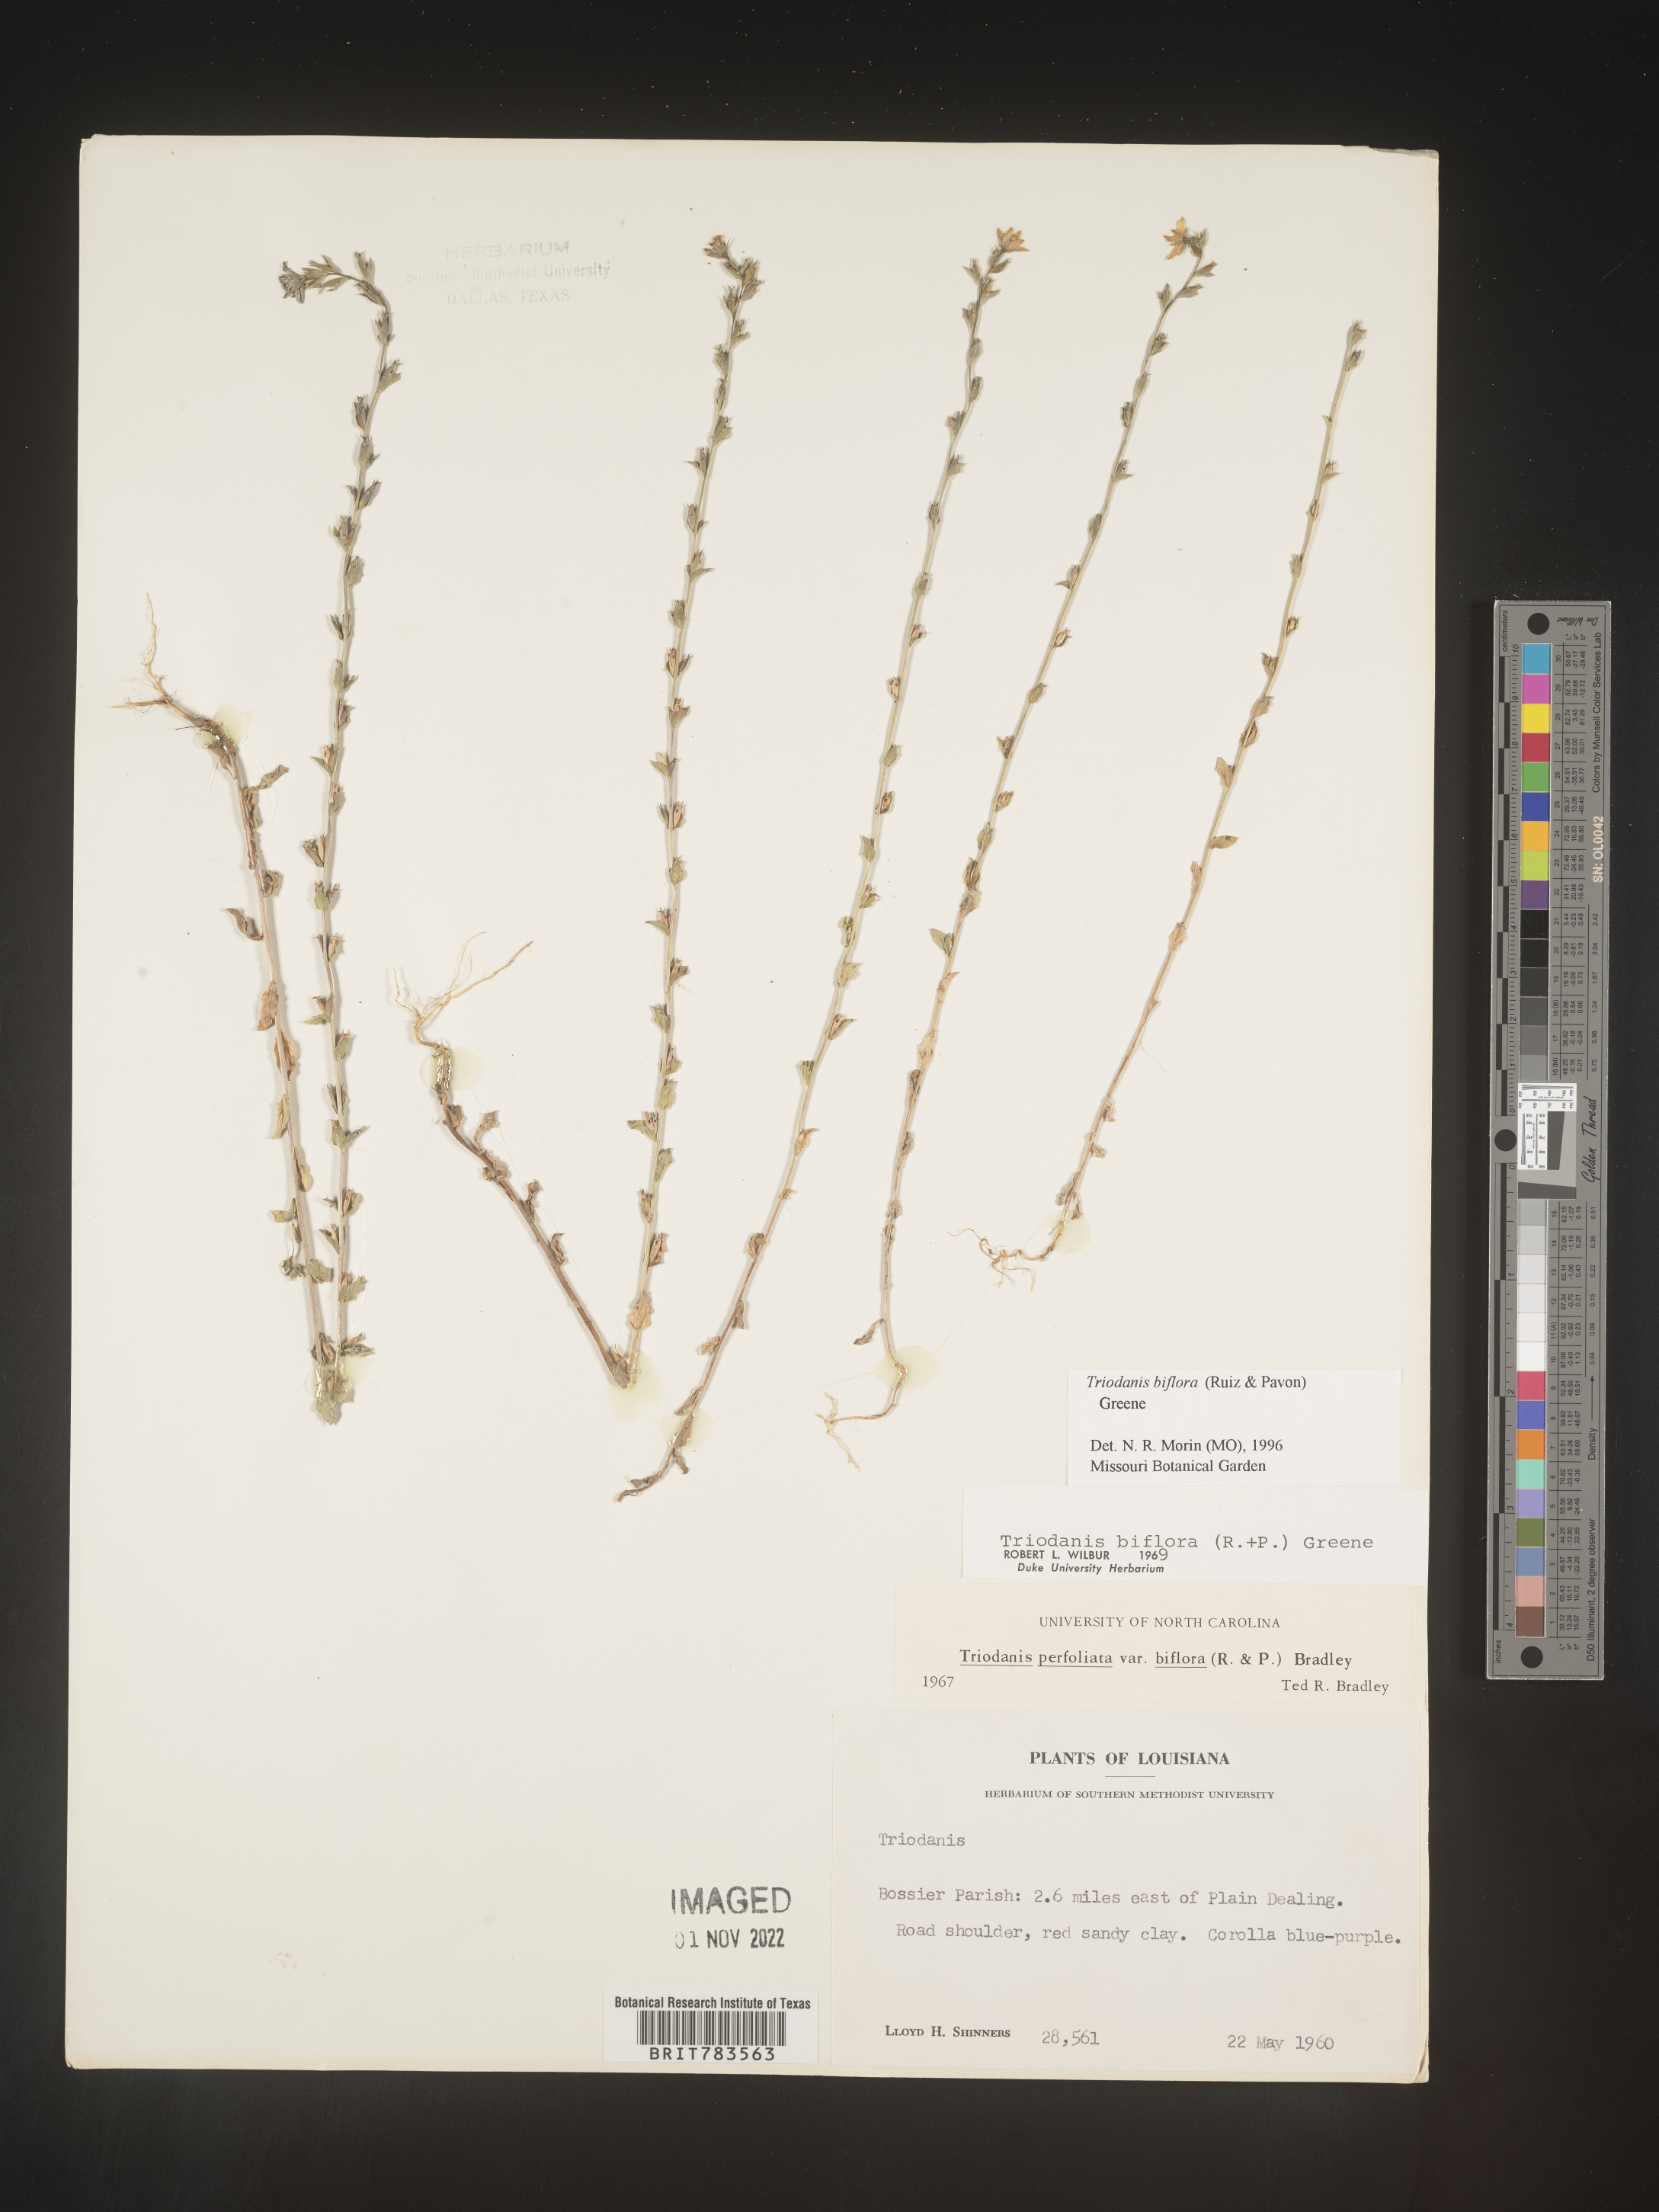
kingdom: Plantae
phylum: Tracheophyta
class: Magnoliopsida
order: Asterales
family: Campanulaceae
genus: Triodanis
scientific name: Triodanis perfoliata
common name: Clasping venus' looking-glass
